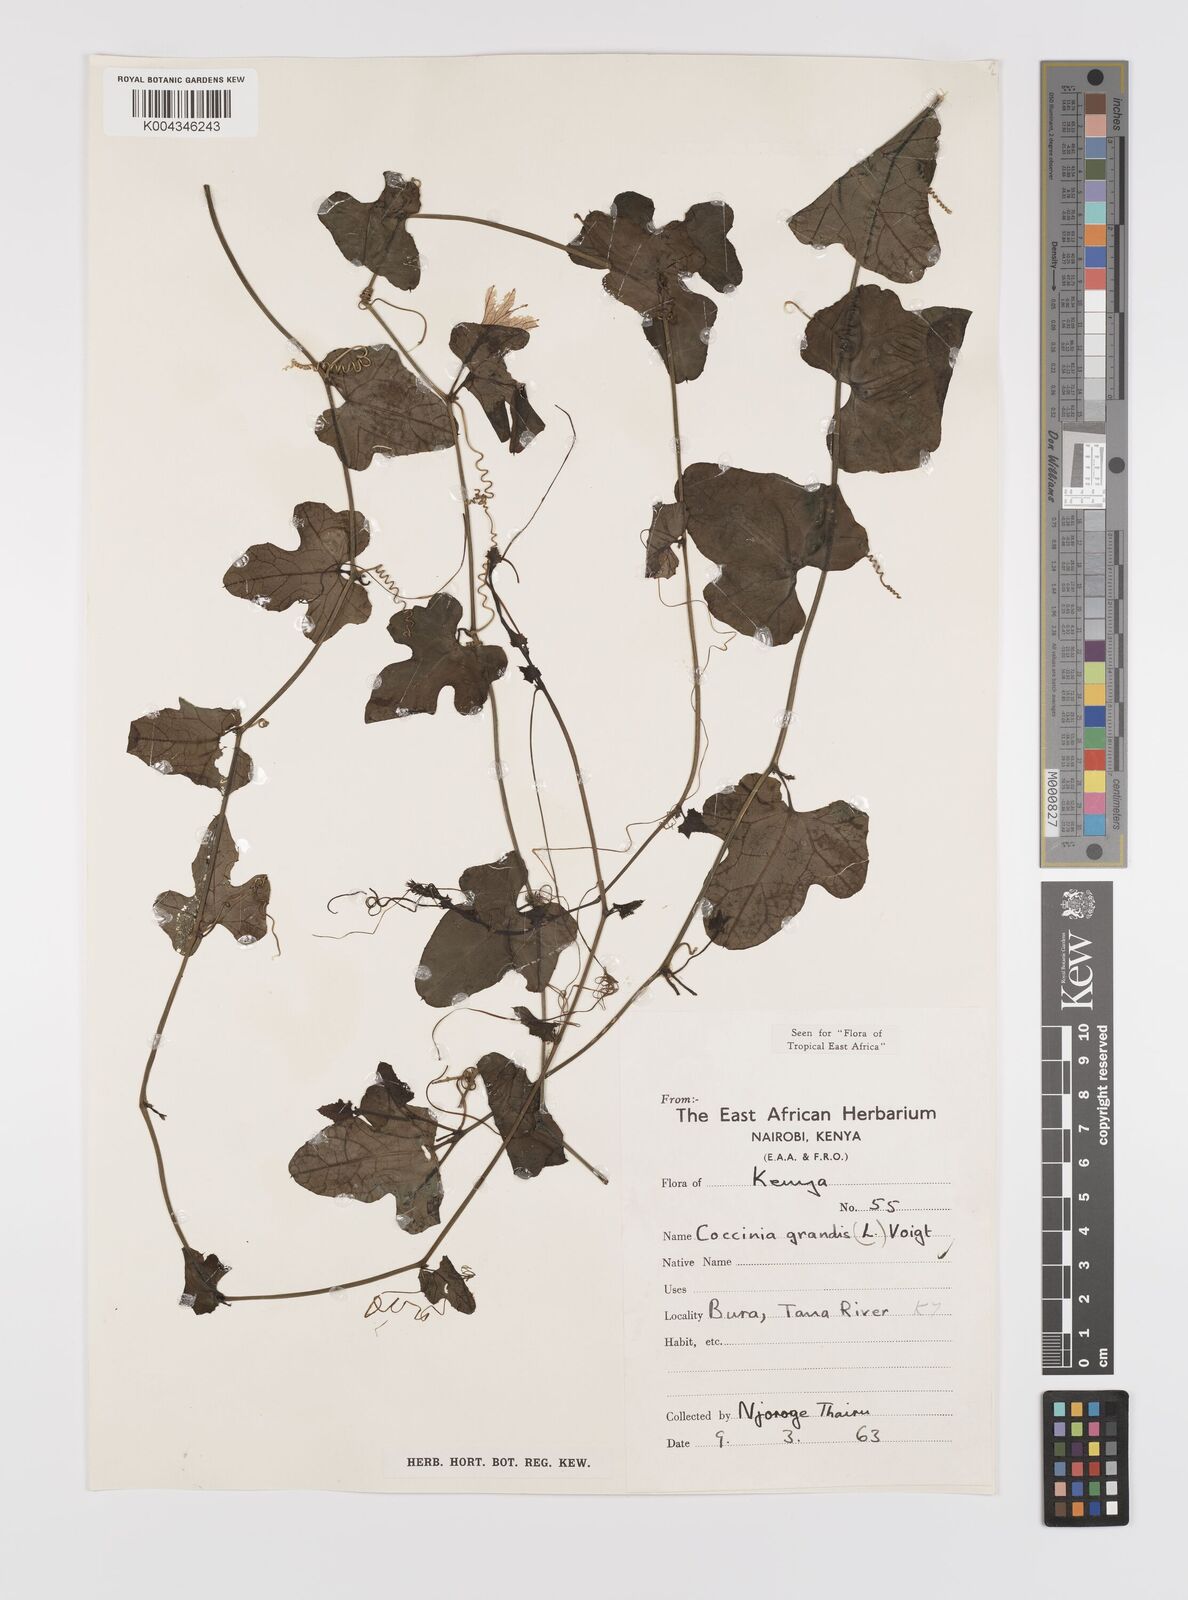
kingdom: Plantae
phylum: Tracheophyta
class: Magnoliopsida
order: Cucurbitales
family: Cucurbitaceae
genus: Coccinia
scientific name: Coccinia grandis
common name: Ivy gourd
